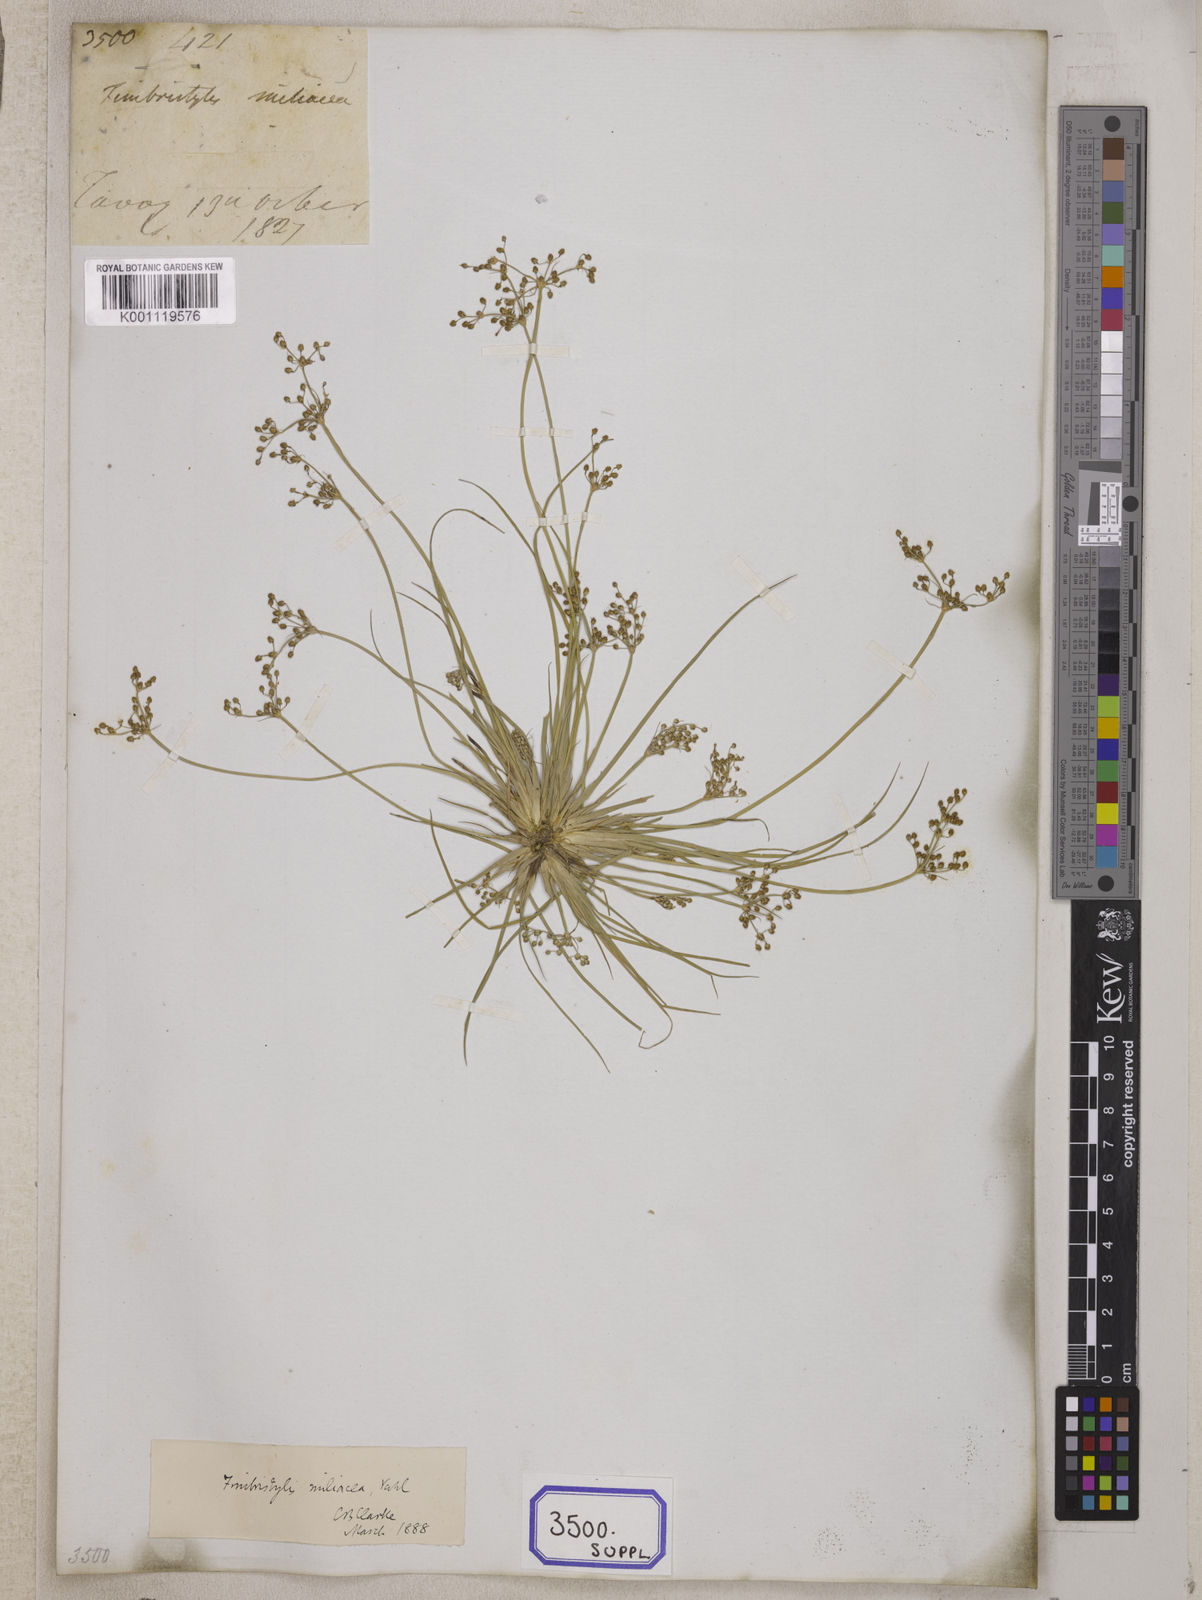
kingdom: Plantae
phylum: Tracheophyta
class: Liliopsida
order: Poales
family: Cyperaceae
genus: Fimbristylis
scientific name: Fimbristylis
